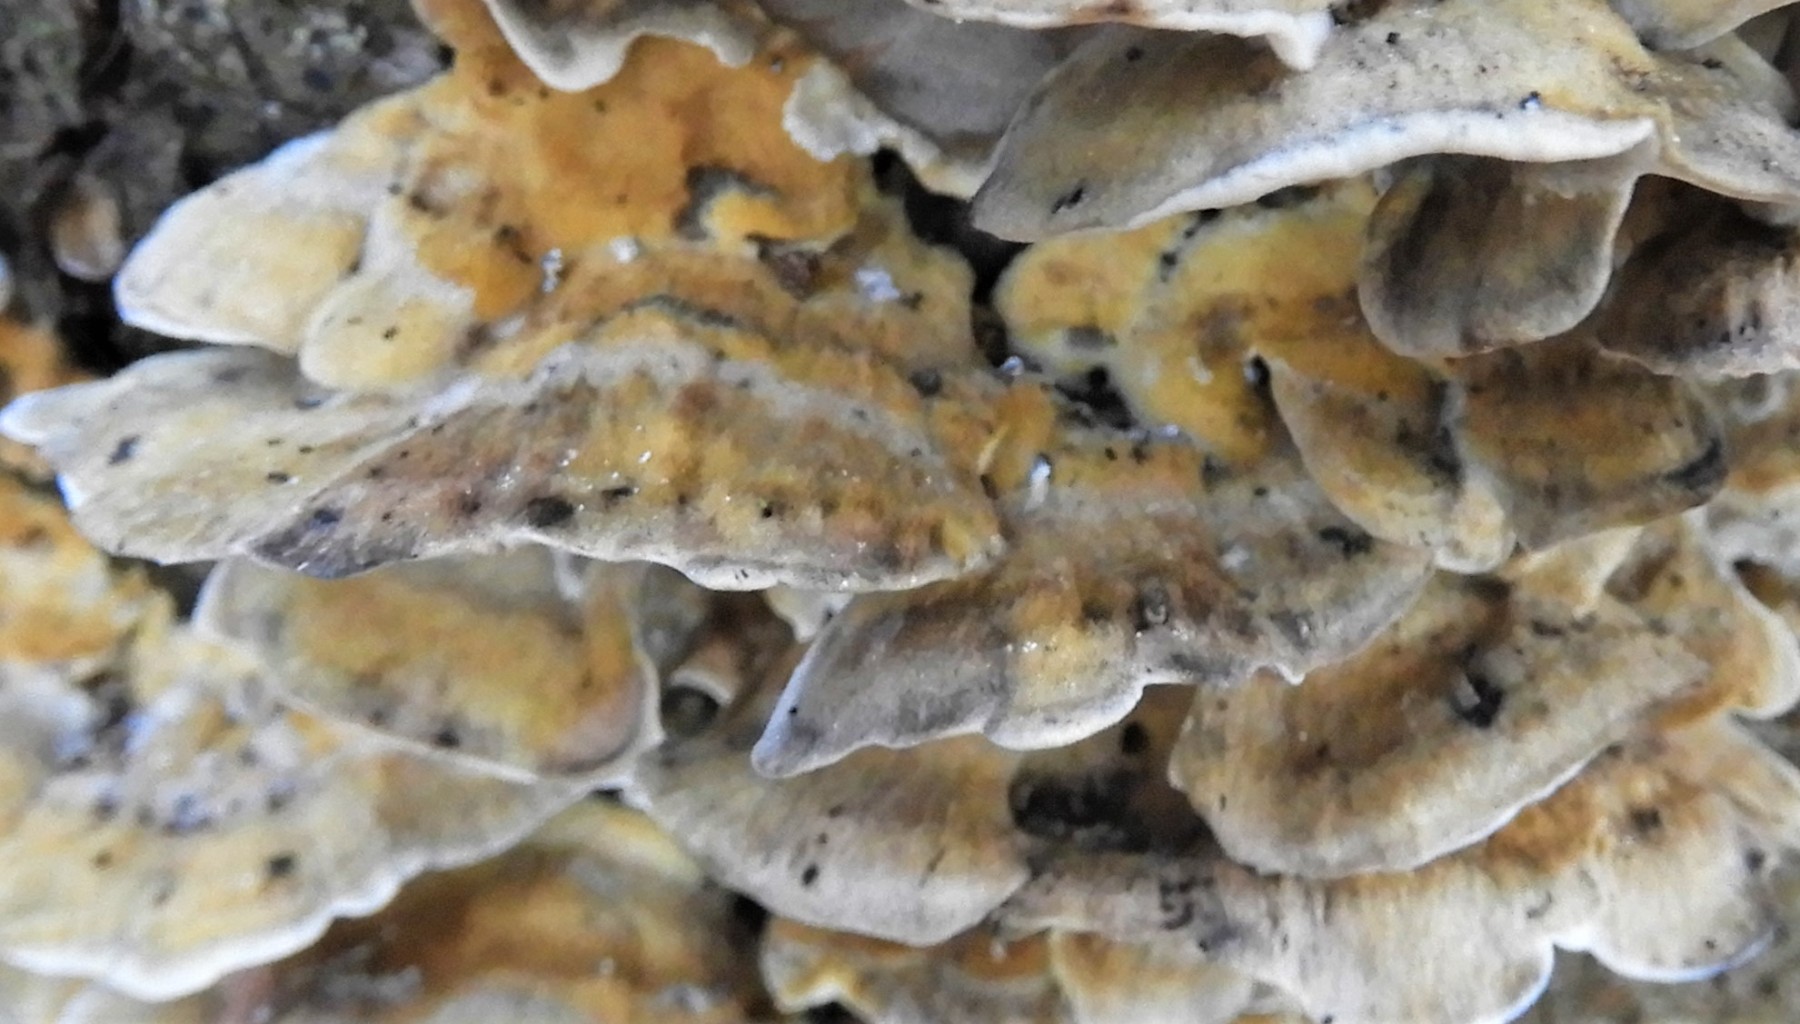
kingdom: Fungi
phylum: Basidiomycota
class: Agaricomycetes
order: Polyporales
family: Phanerochaetaceae
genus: Bjerkandera
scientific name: Bjerkandera adusta
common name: sveden sodporesvamp
